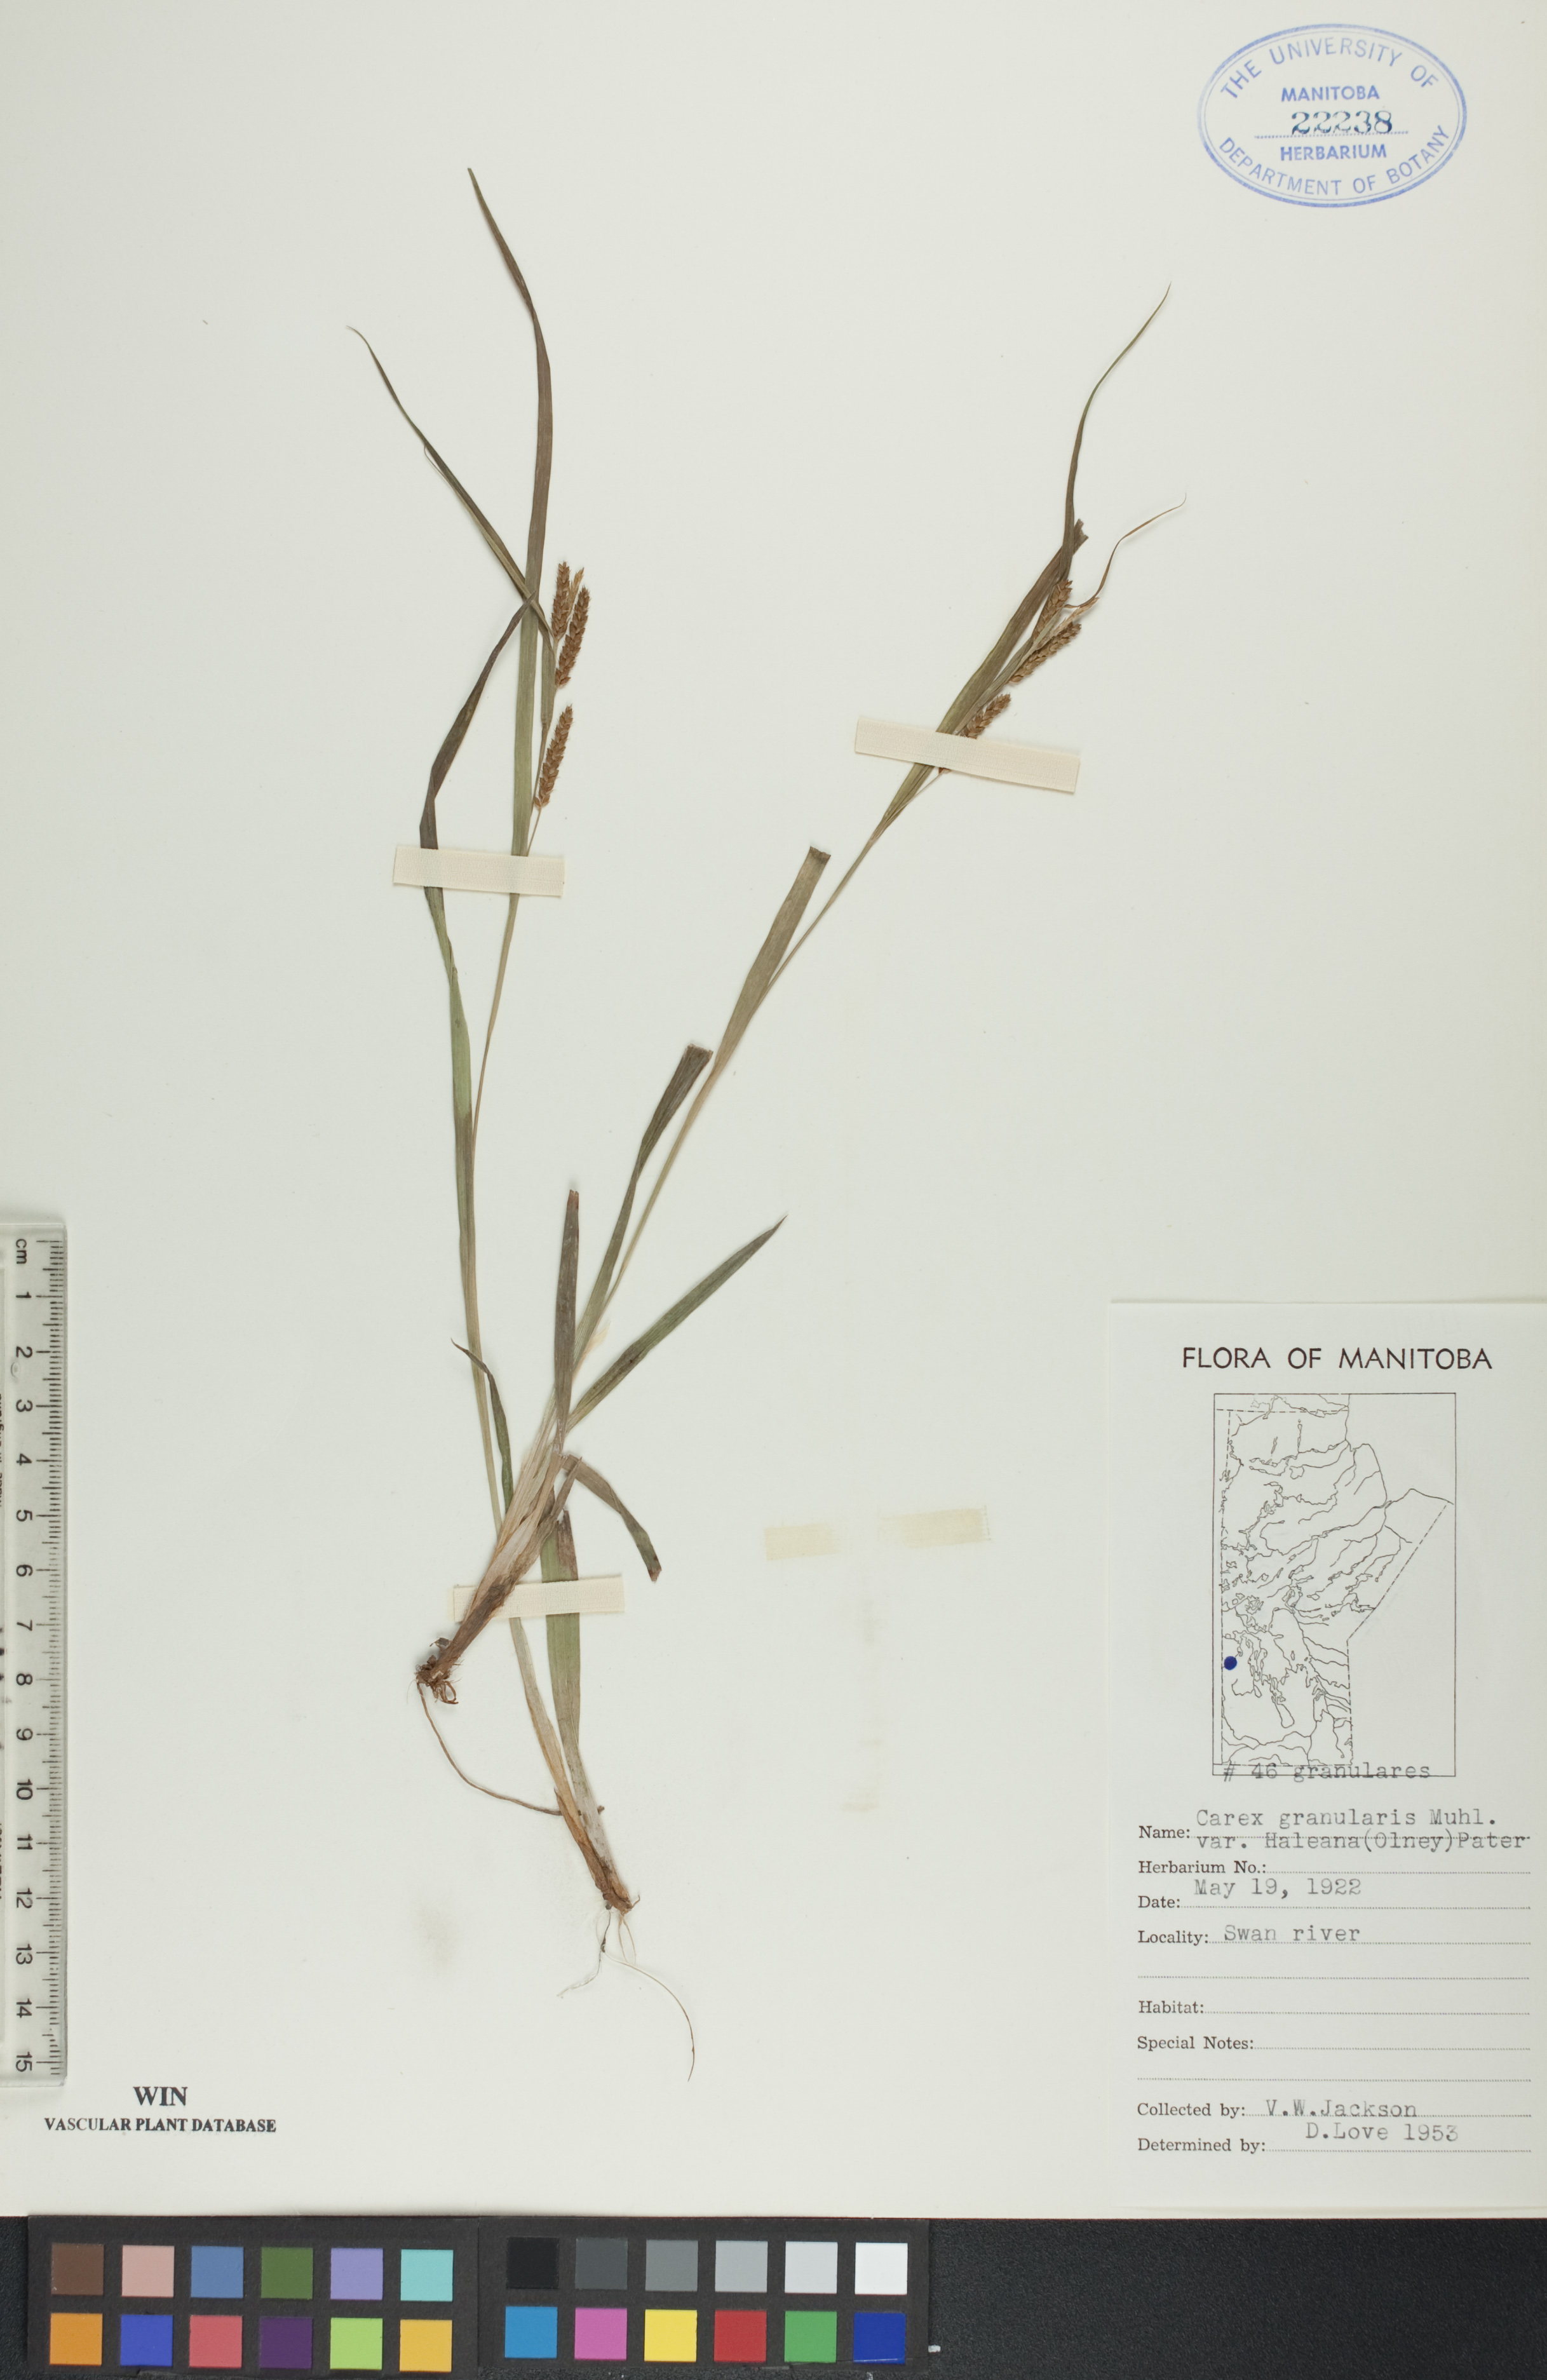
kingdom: Plantae
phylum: Tracheophyta
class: Liliopsida
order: Poales
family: Cyperaceae
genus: Carex
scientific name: Carex granularis
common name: Granular sedge
